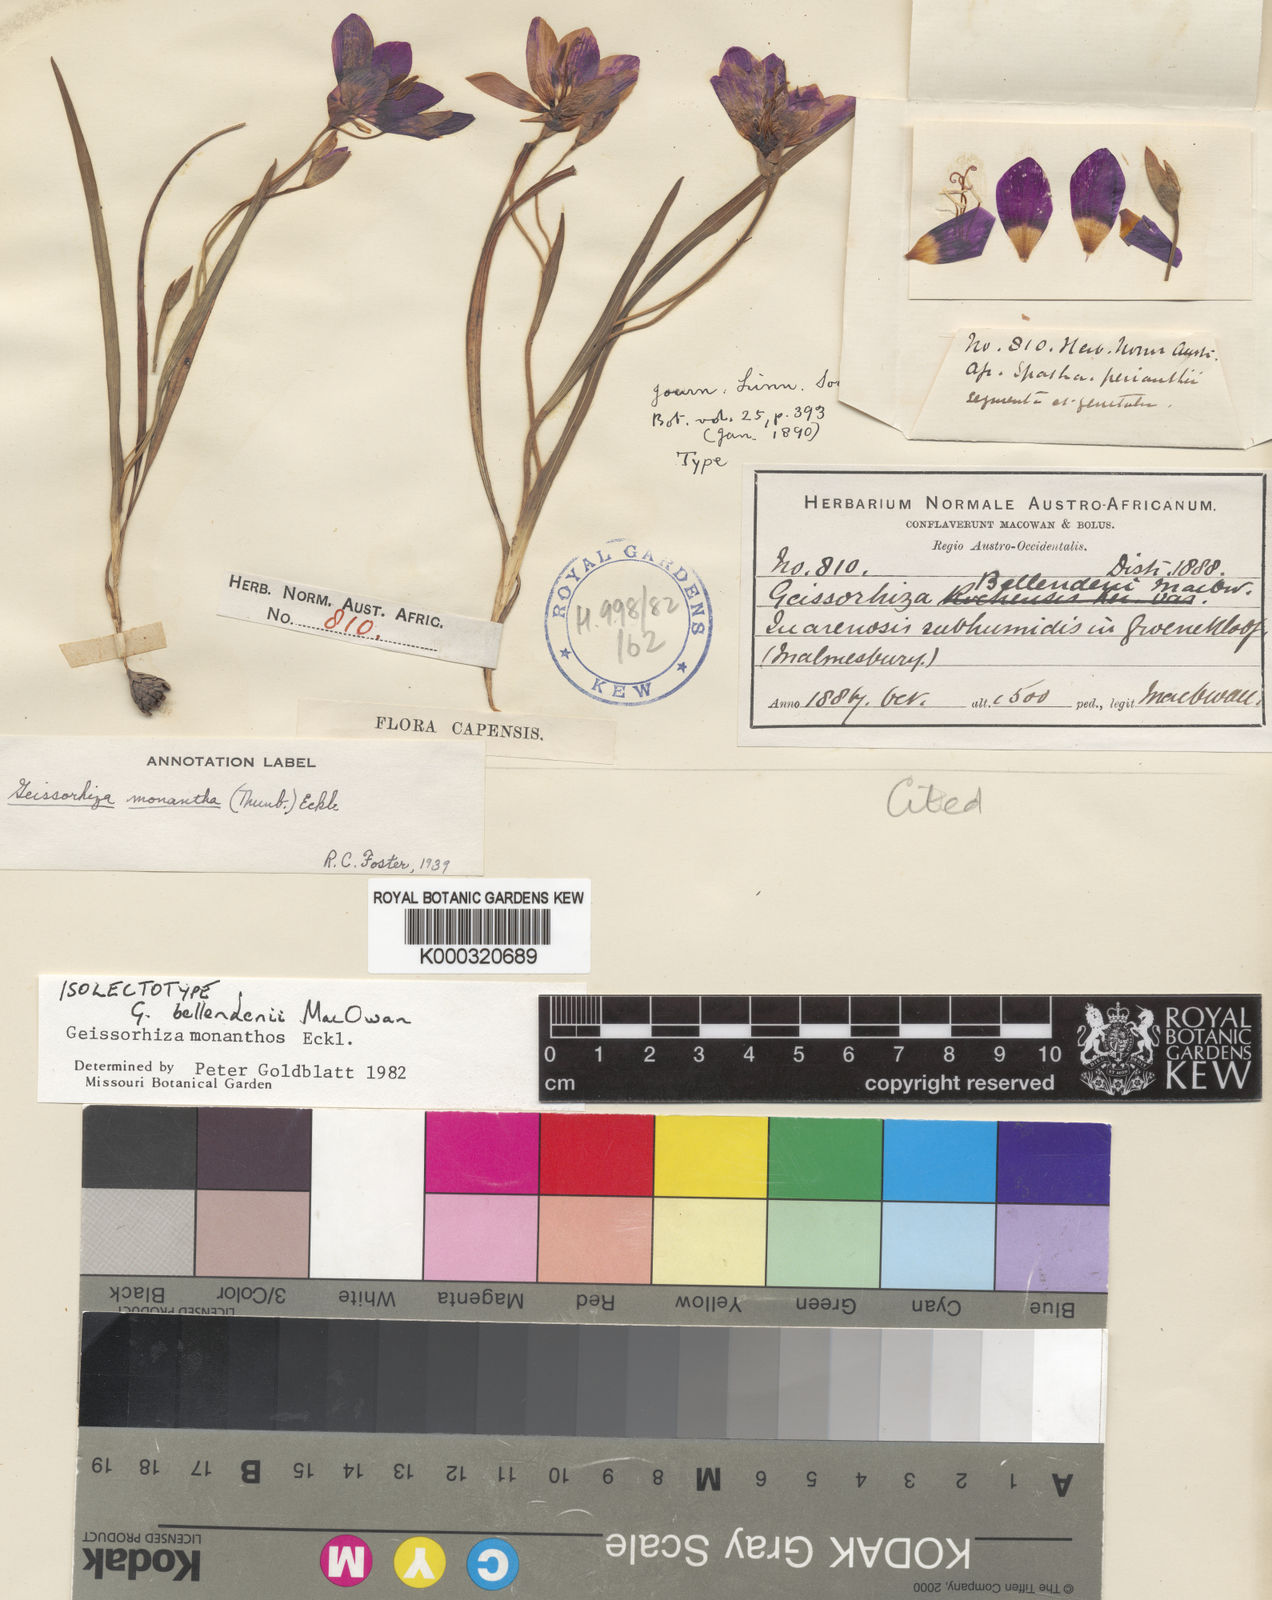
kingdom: Plantae
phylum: Tracheophyta
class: Liliopsida
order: Asparagales
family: Iridaceae
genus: Geissorhiza
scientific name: Geissorhiza monanthos
